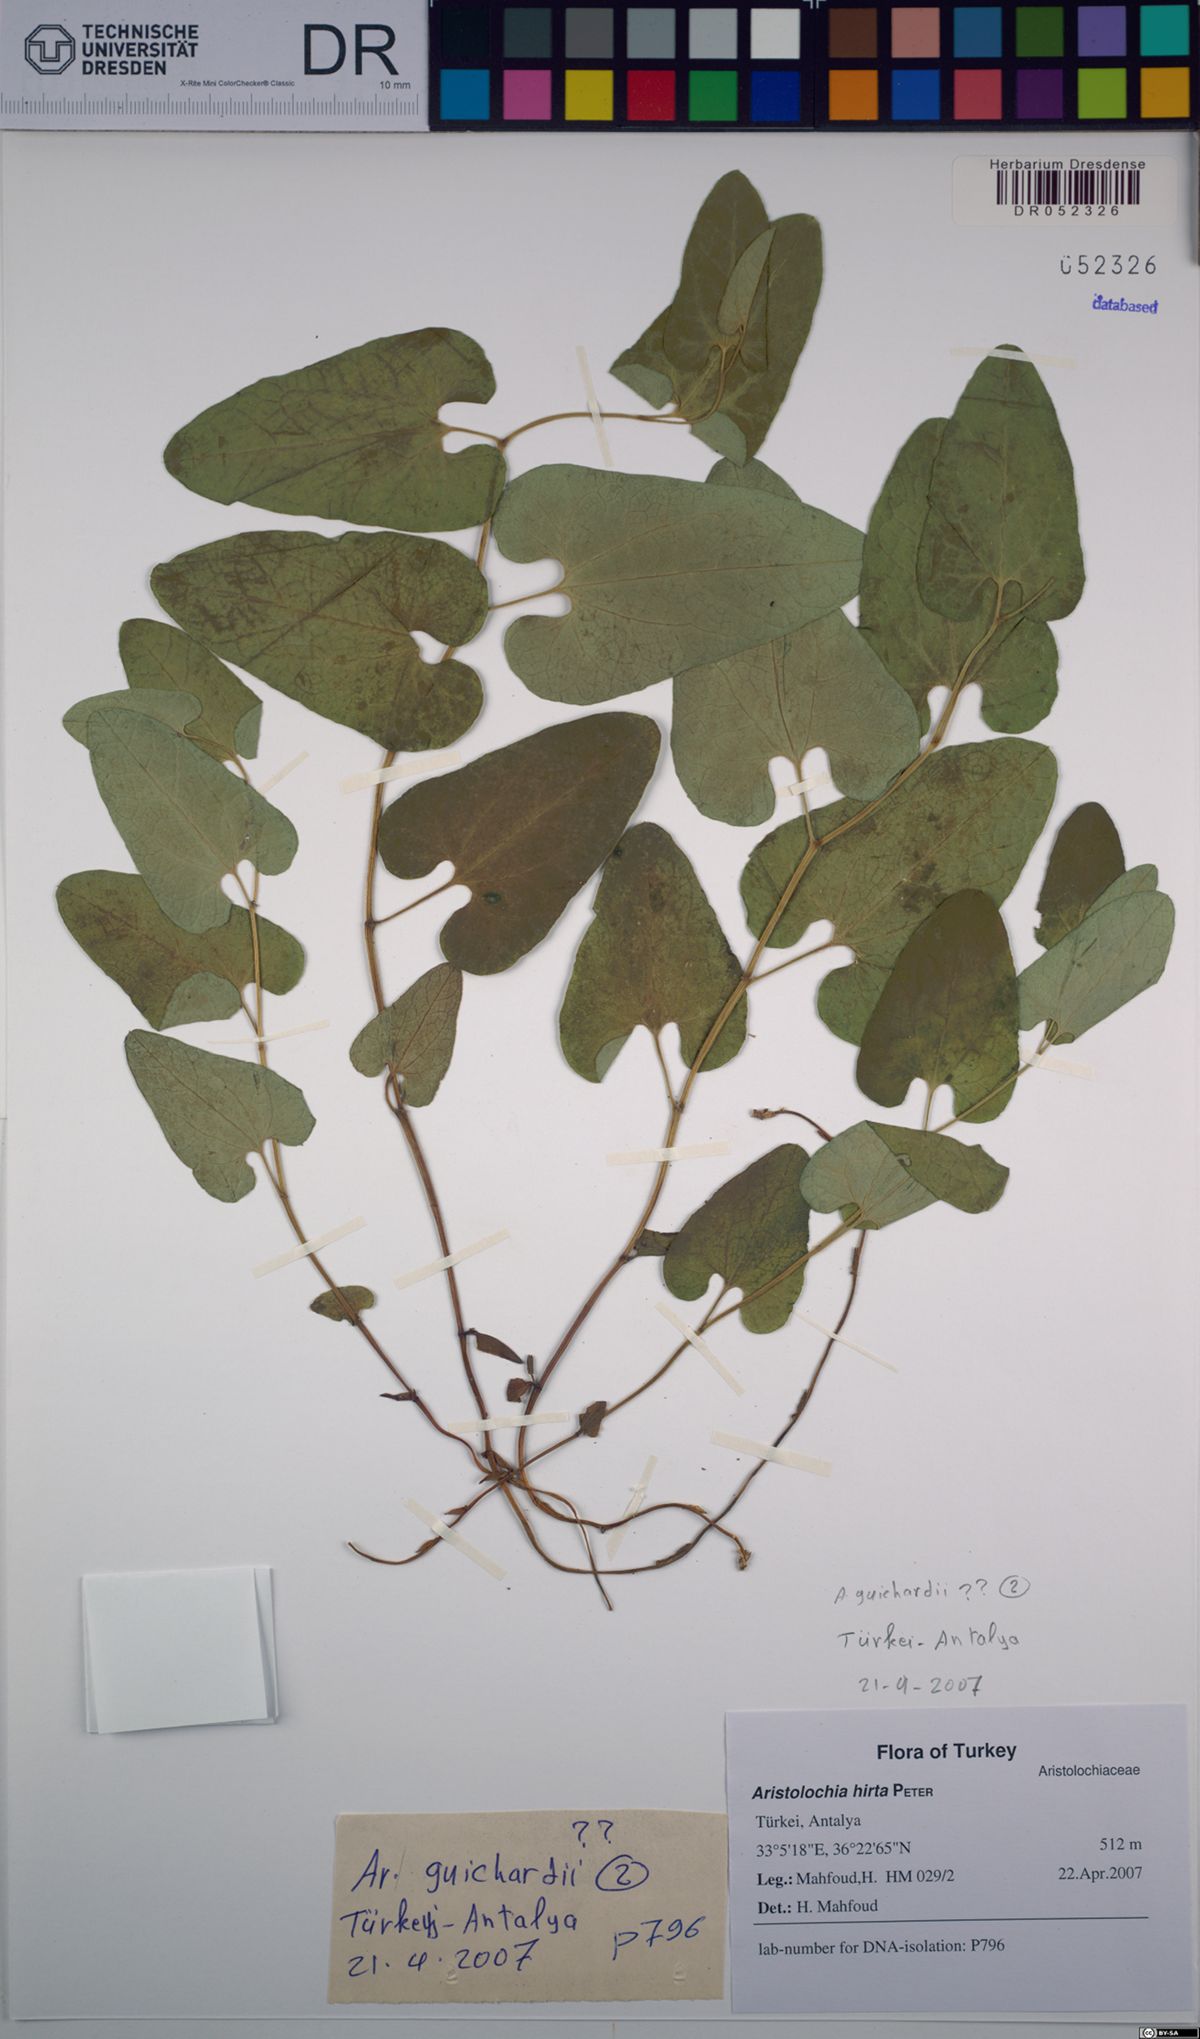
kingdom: Plantae
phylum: Tracheophyta
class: Magnoliopsida
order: Piperales
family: Aristolochiaceae
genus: Aristolochia
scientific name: Aristolochia hockii
